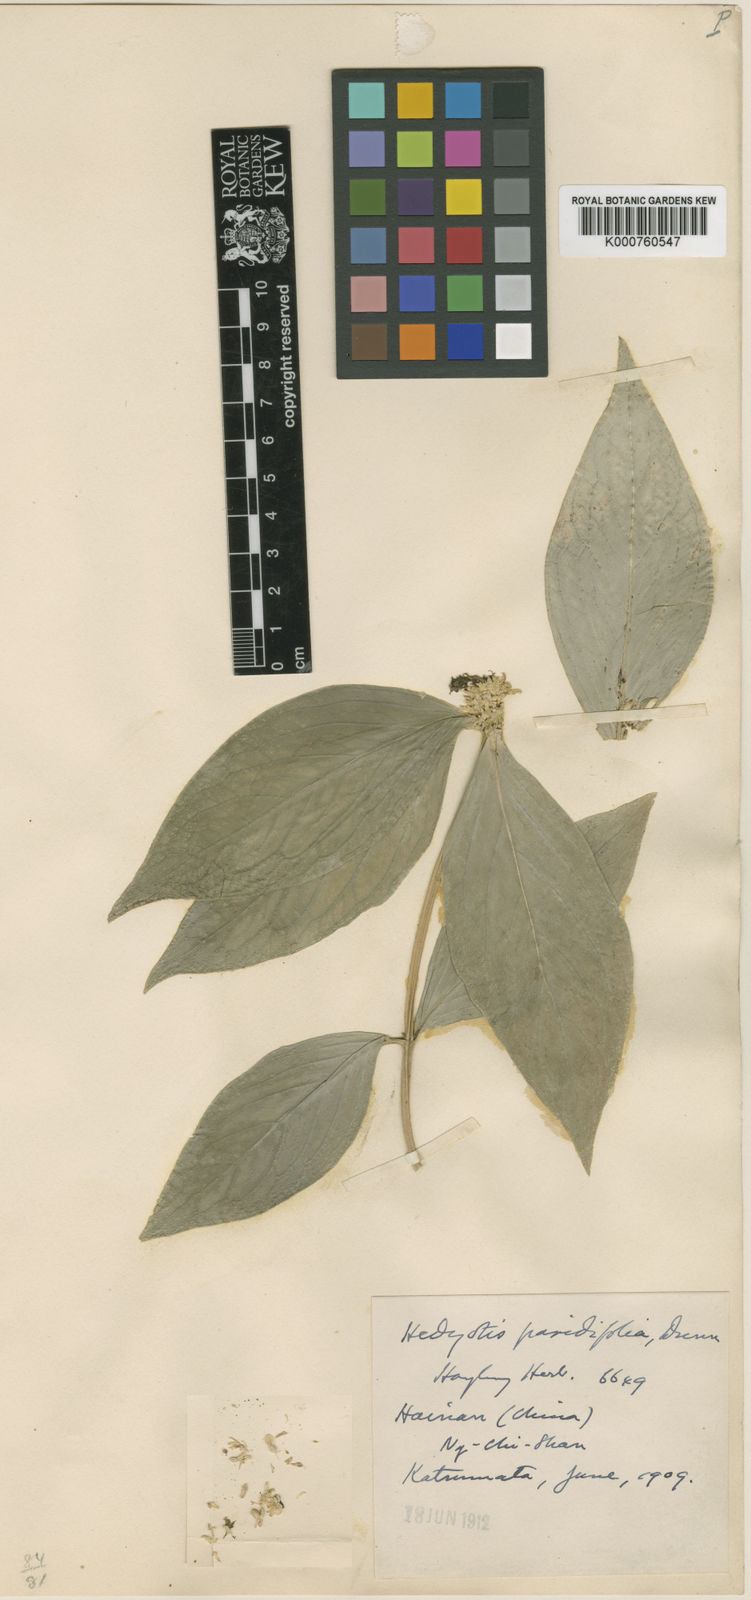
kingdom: Plantae
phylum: Tracheophyta
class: Magnoliopsida
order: Gentianales
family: Rubiaceae
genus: Oldenlandia
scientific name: Oldenlandia
